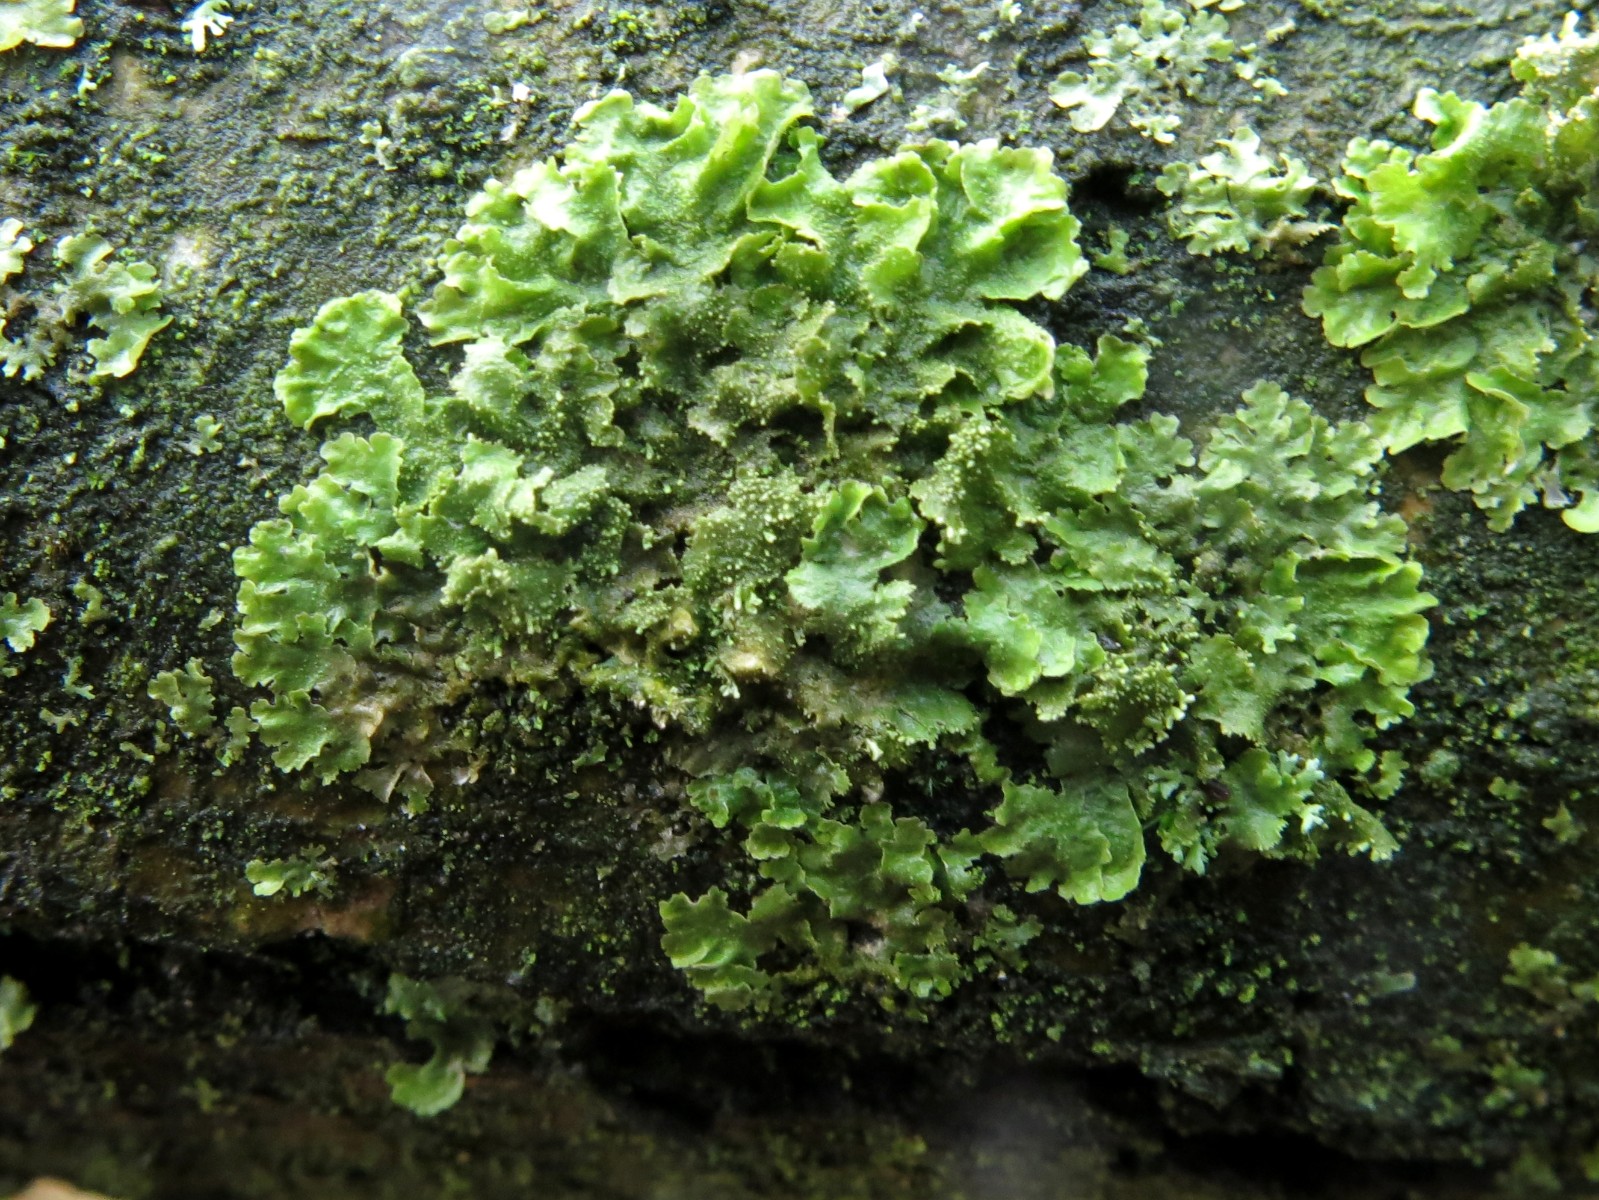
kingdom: Fungi
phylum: Ascomycota
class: Lecanoromycetes
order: Lecanorales
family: Parmeliaceae
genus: Melanohalea
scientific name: Melanohalea exasperatula
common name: kølle-skållav
